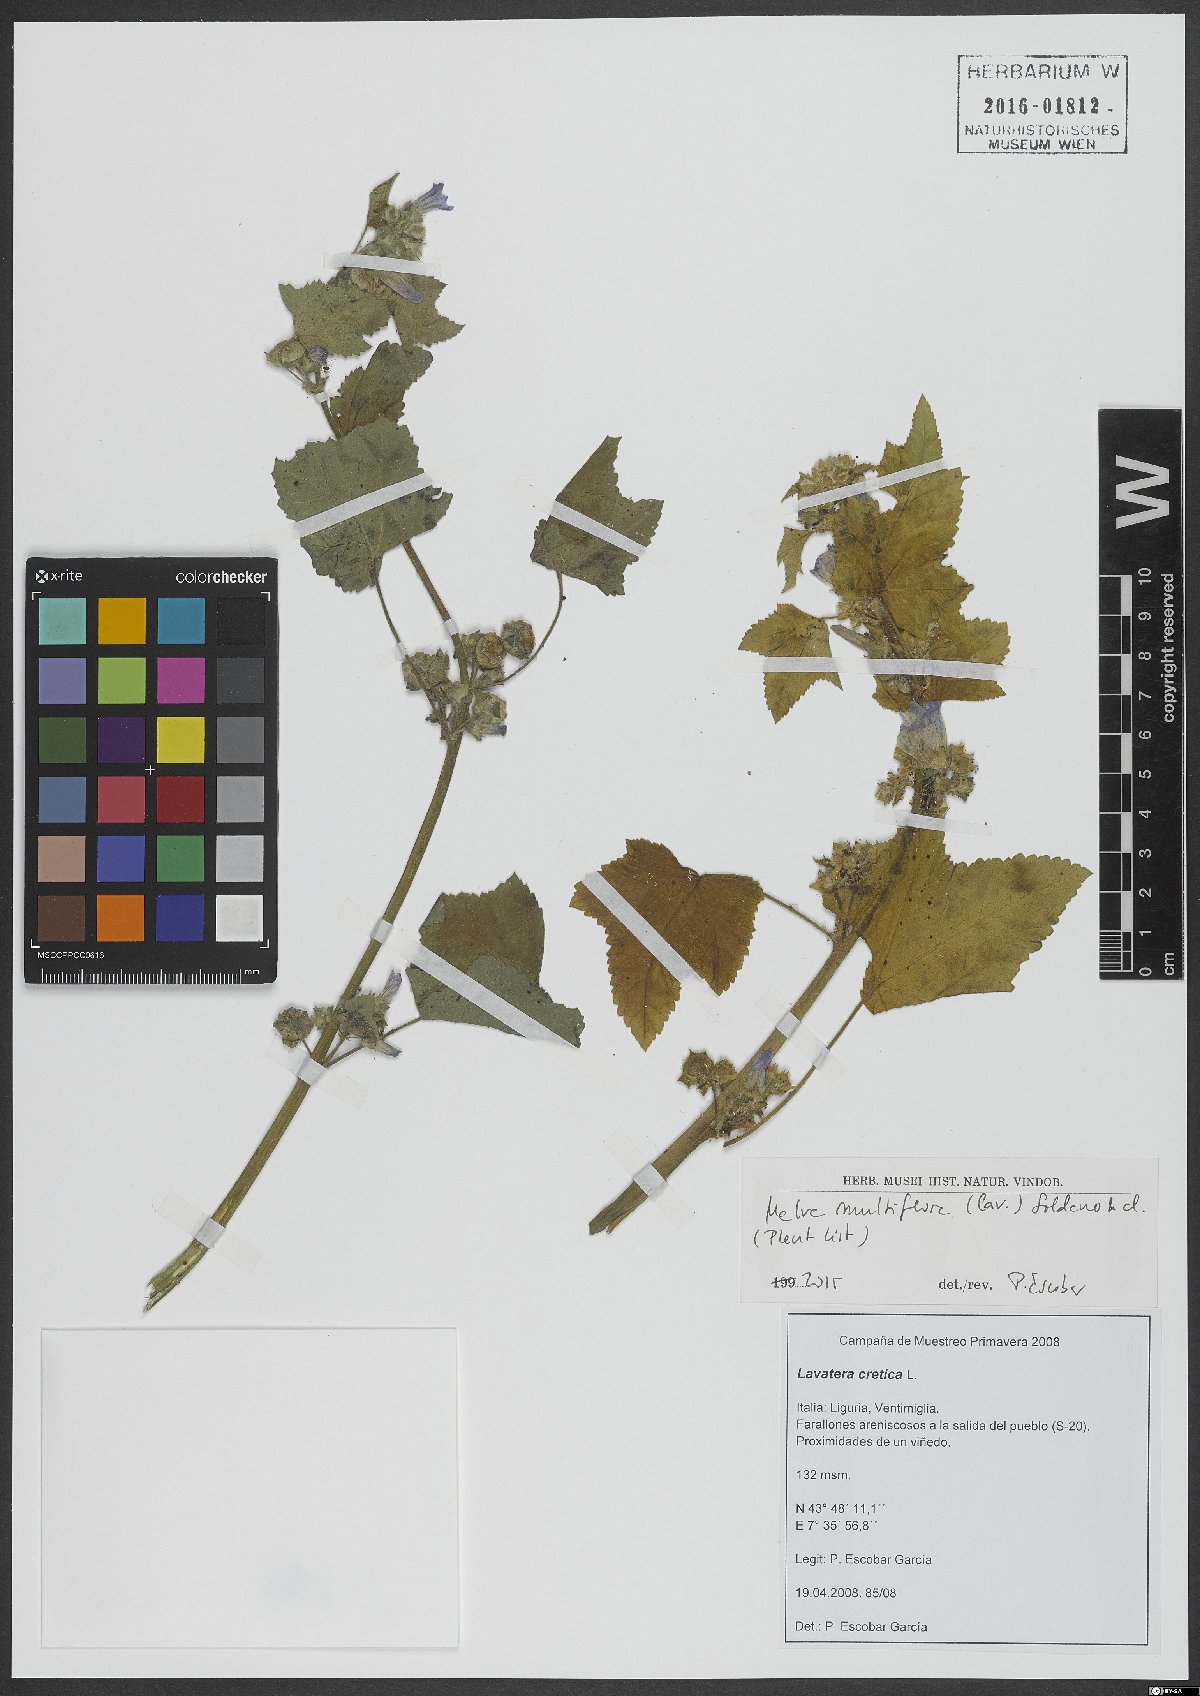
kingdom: Plantae
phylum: Tracheophyta
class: Magnoliopsida
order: Malvales
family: Malvaceae
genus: Malva
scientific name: Malva multiflora
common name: Cheeseweed
